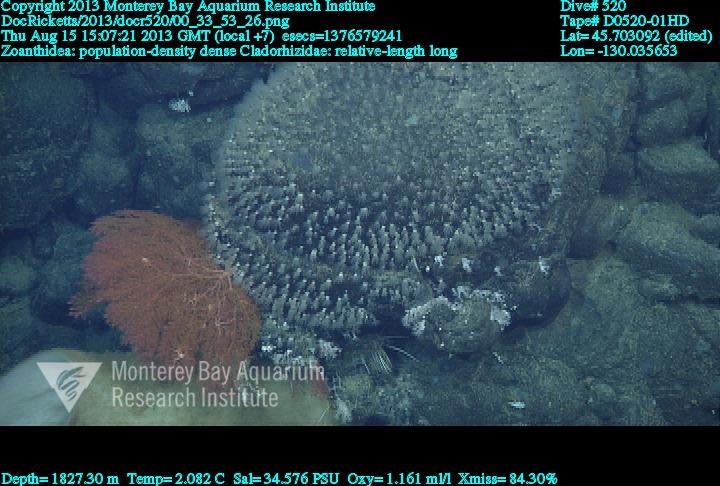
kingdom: Animalia
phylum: Porifera
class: Demospongiae
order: Poecilosclerida
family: Cladorhizidae
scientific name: Cladorhizidae
